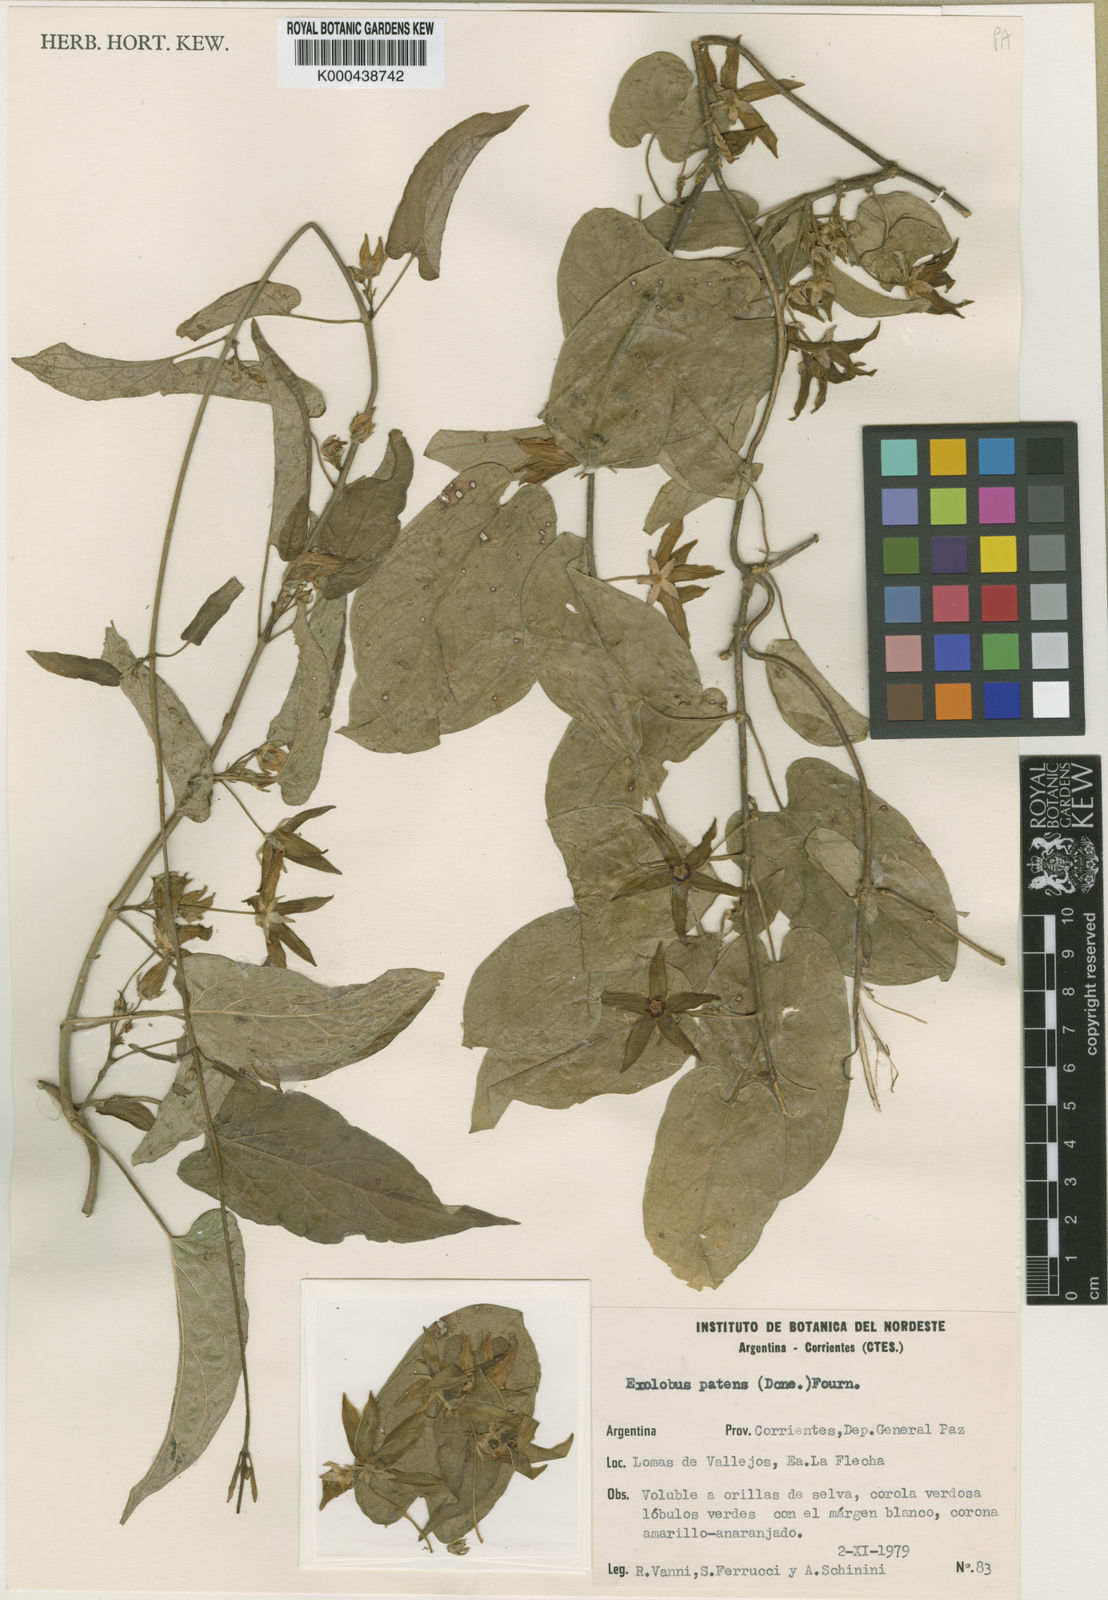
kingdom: Plantae
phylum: Tracheophyta
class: Magnoliopsida
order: Gentianales
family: Apocynaceae
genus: Gonolobus
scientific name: Gonolobus
